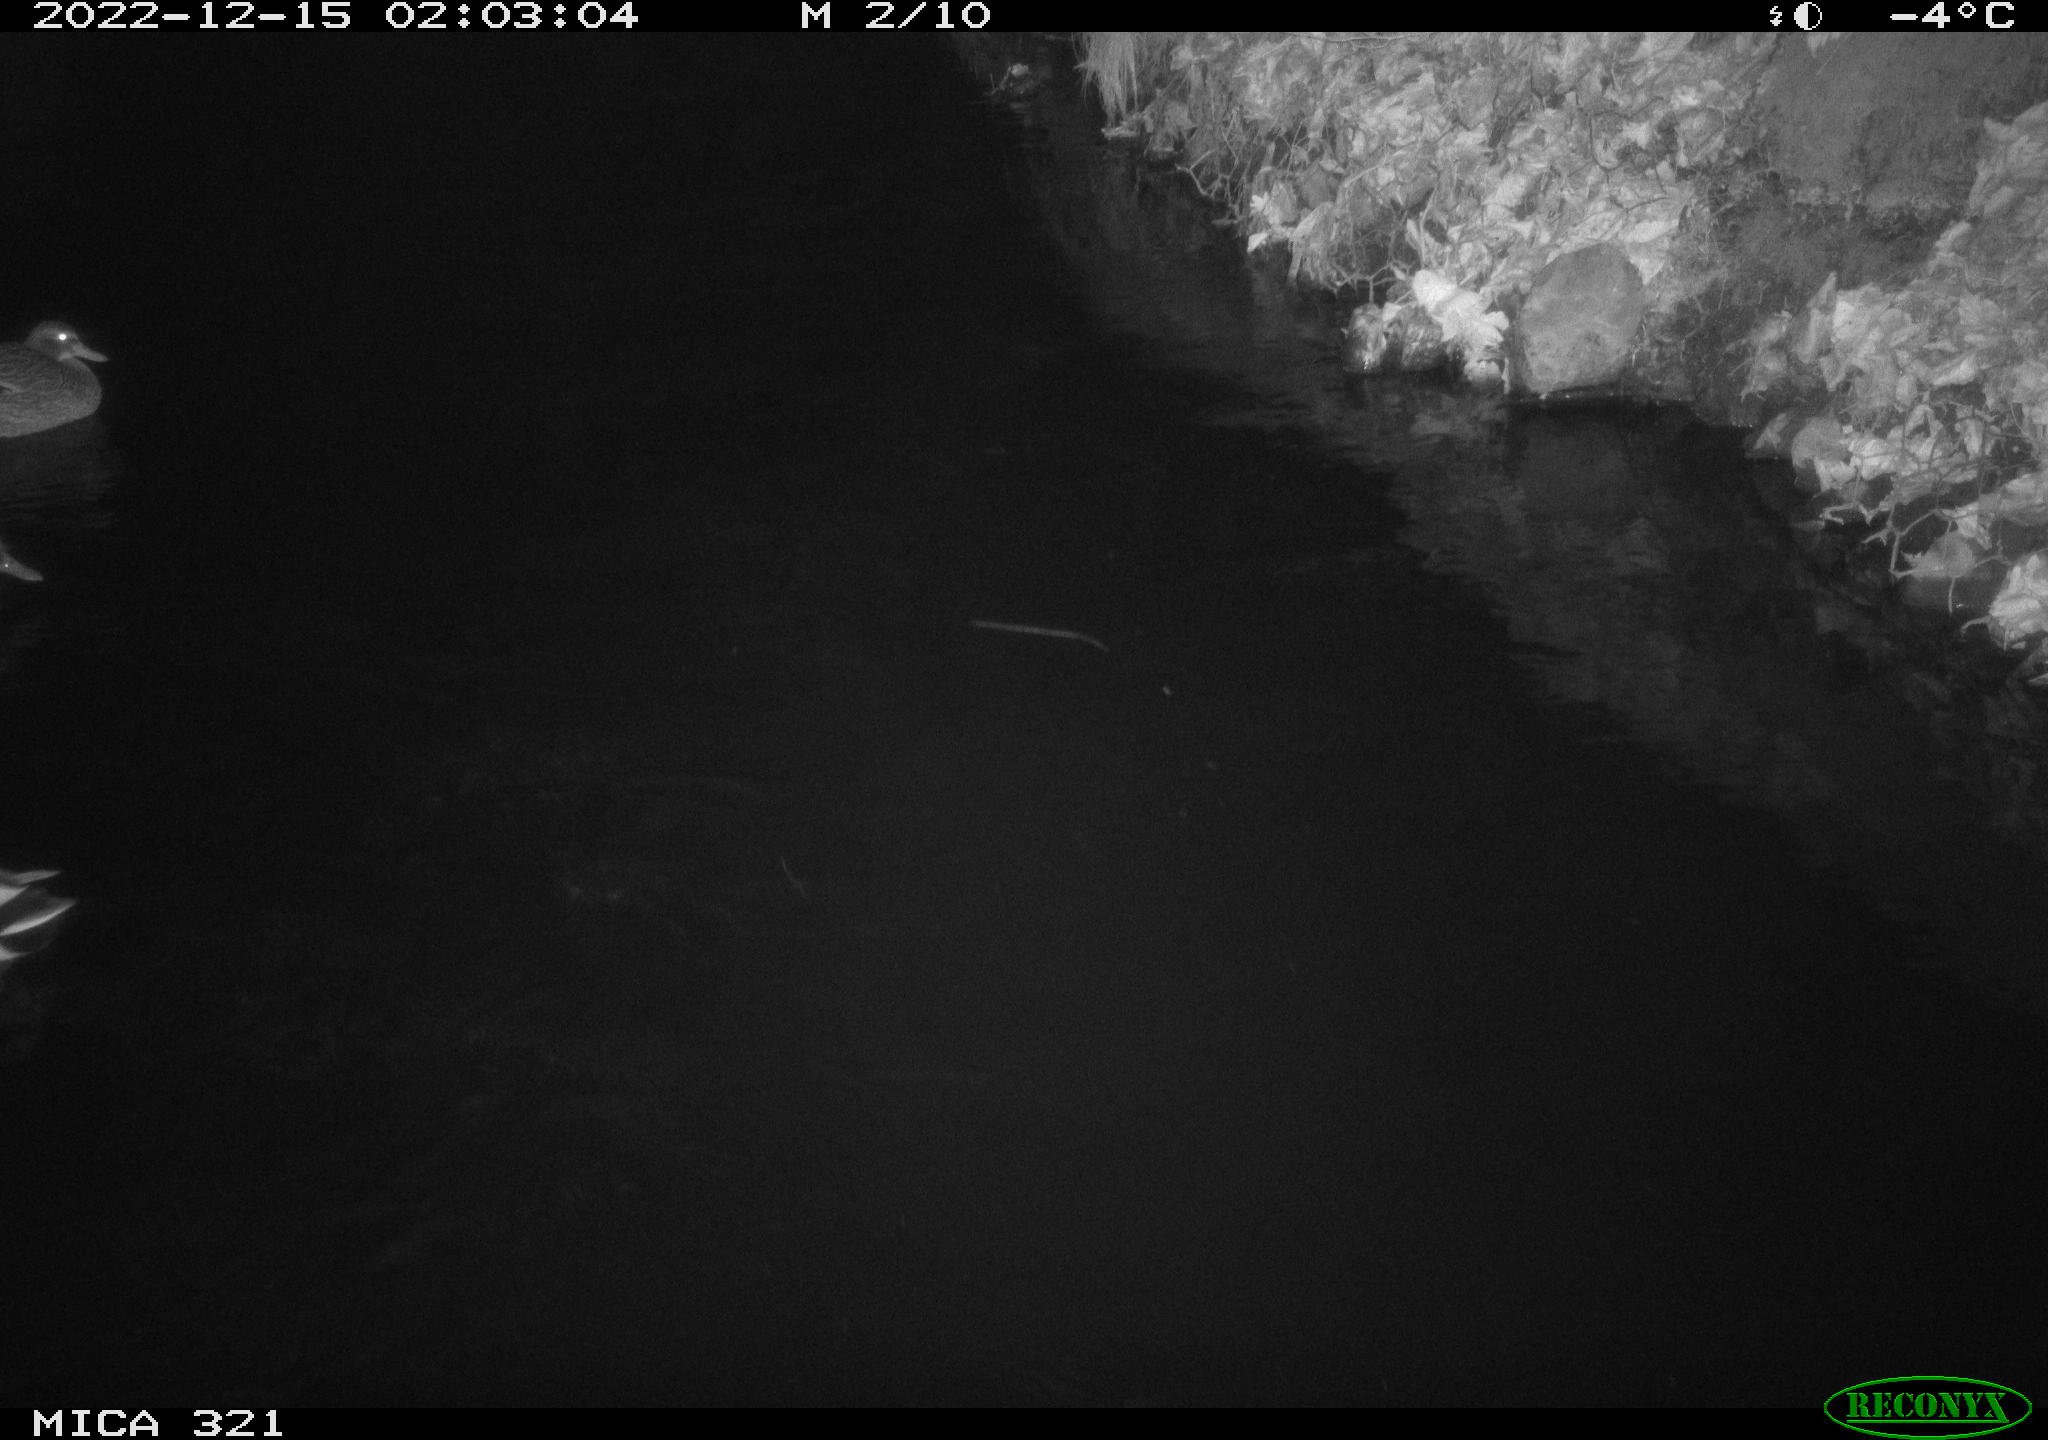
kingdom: Animalia
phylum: Chordata
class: Aves
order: Anseriformes
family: Anatidae
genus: Anas
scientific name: Anas
